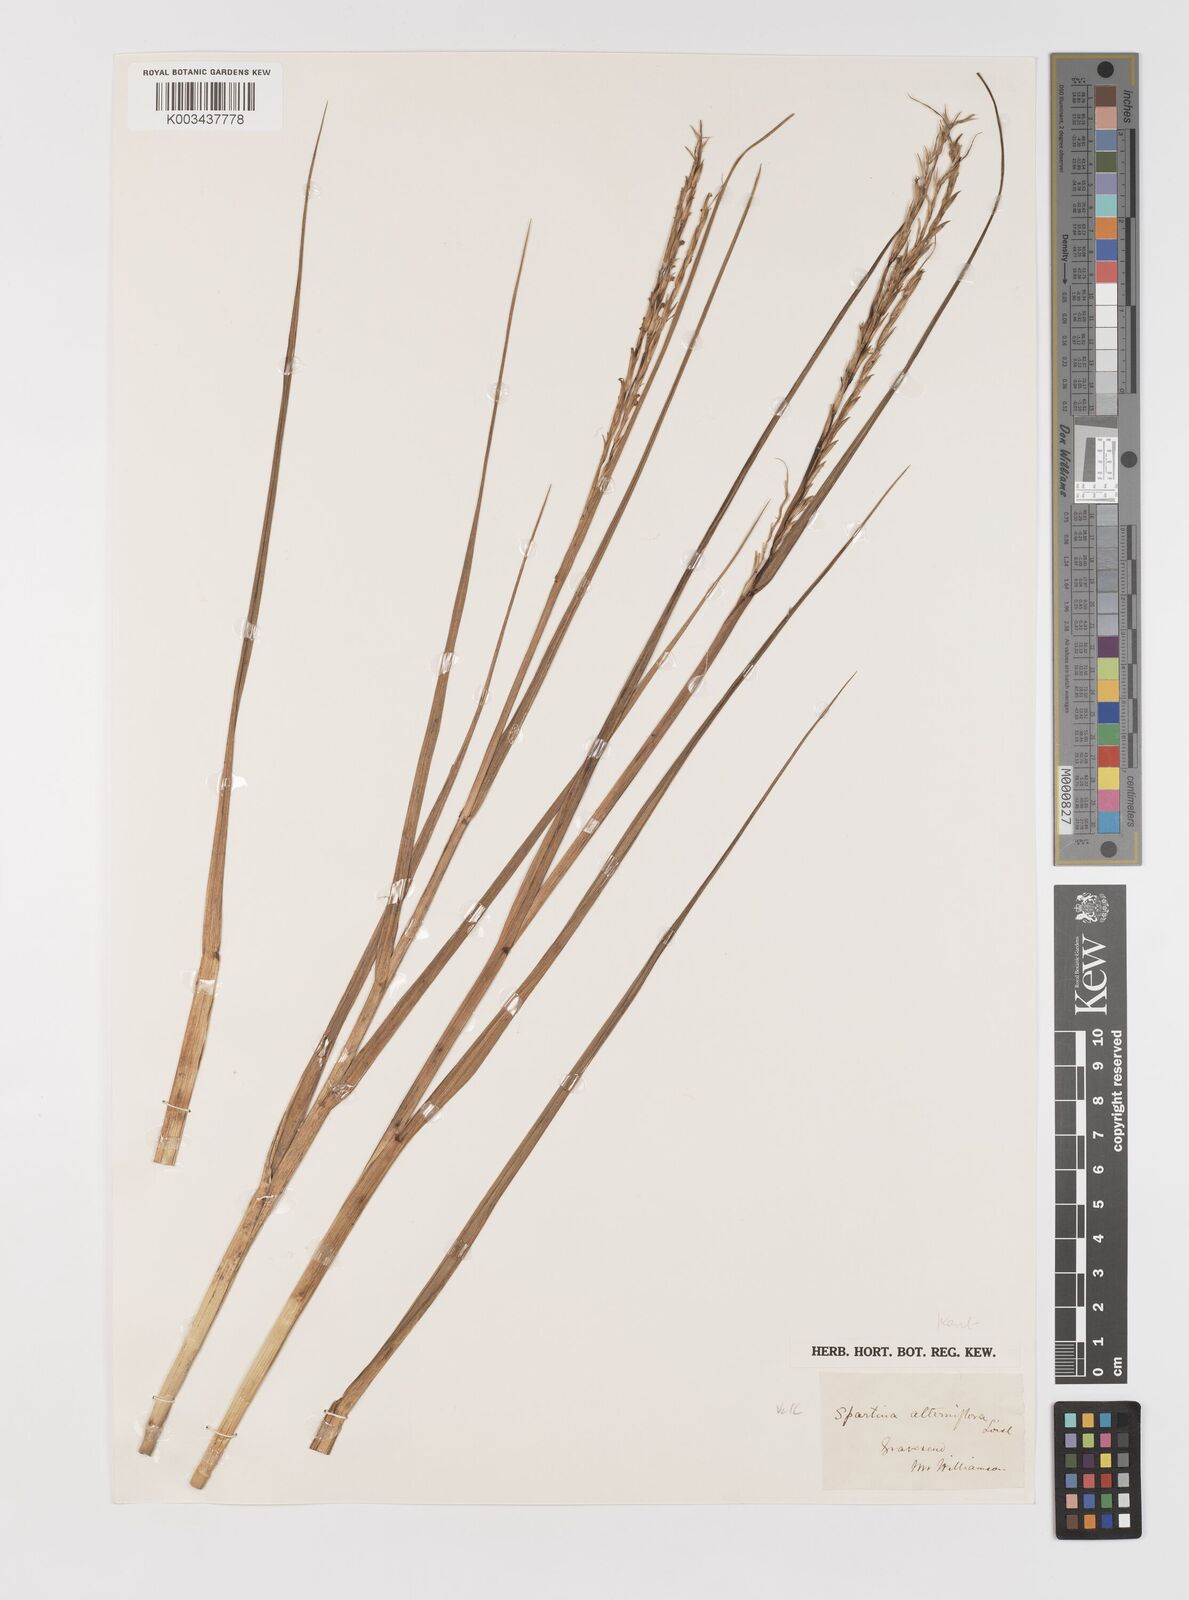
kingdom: Plantae
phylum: Tracheophyta
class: Liliopsida
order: Poales
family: Poaceae
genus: Sporobolus
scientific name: Sporobolus alterniflorus
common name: Atlantic cordgrass
